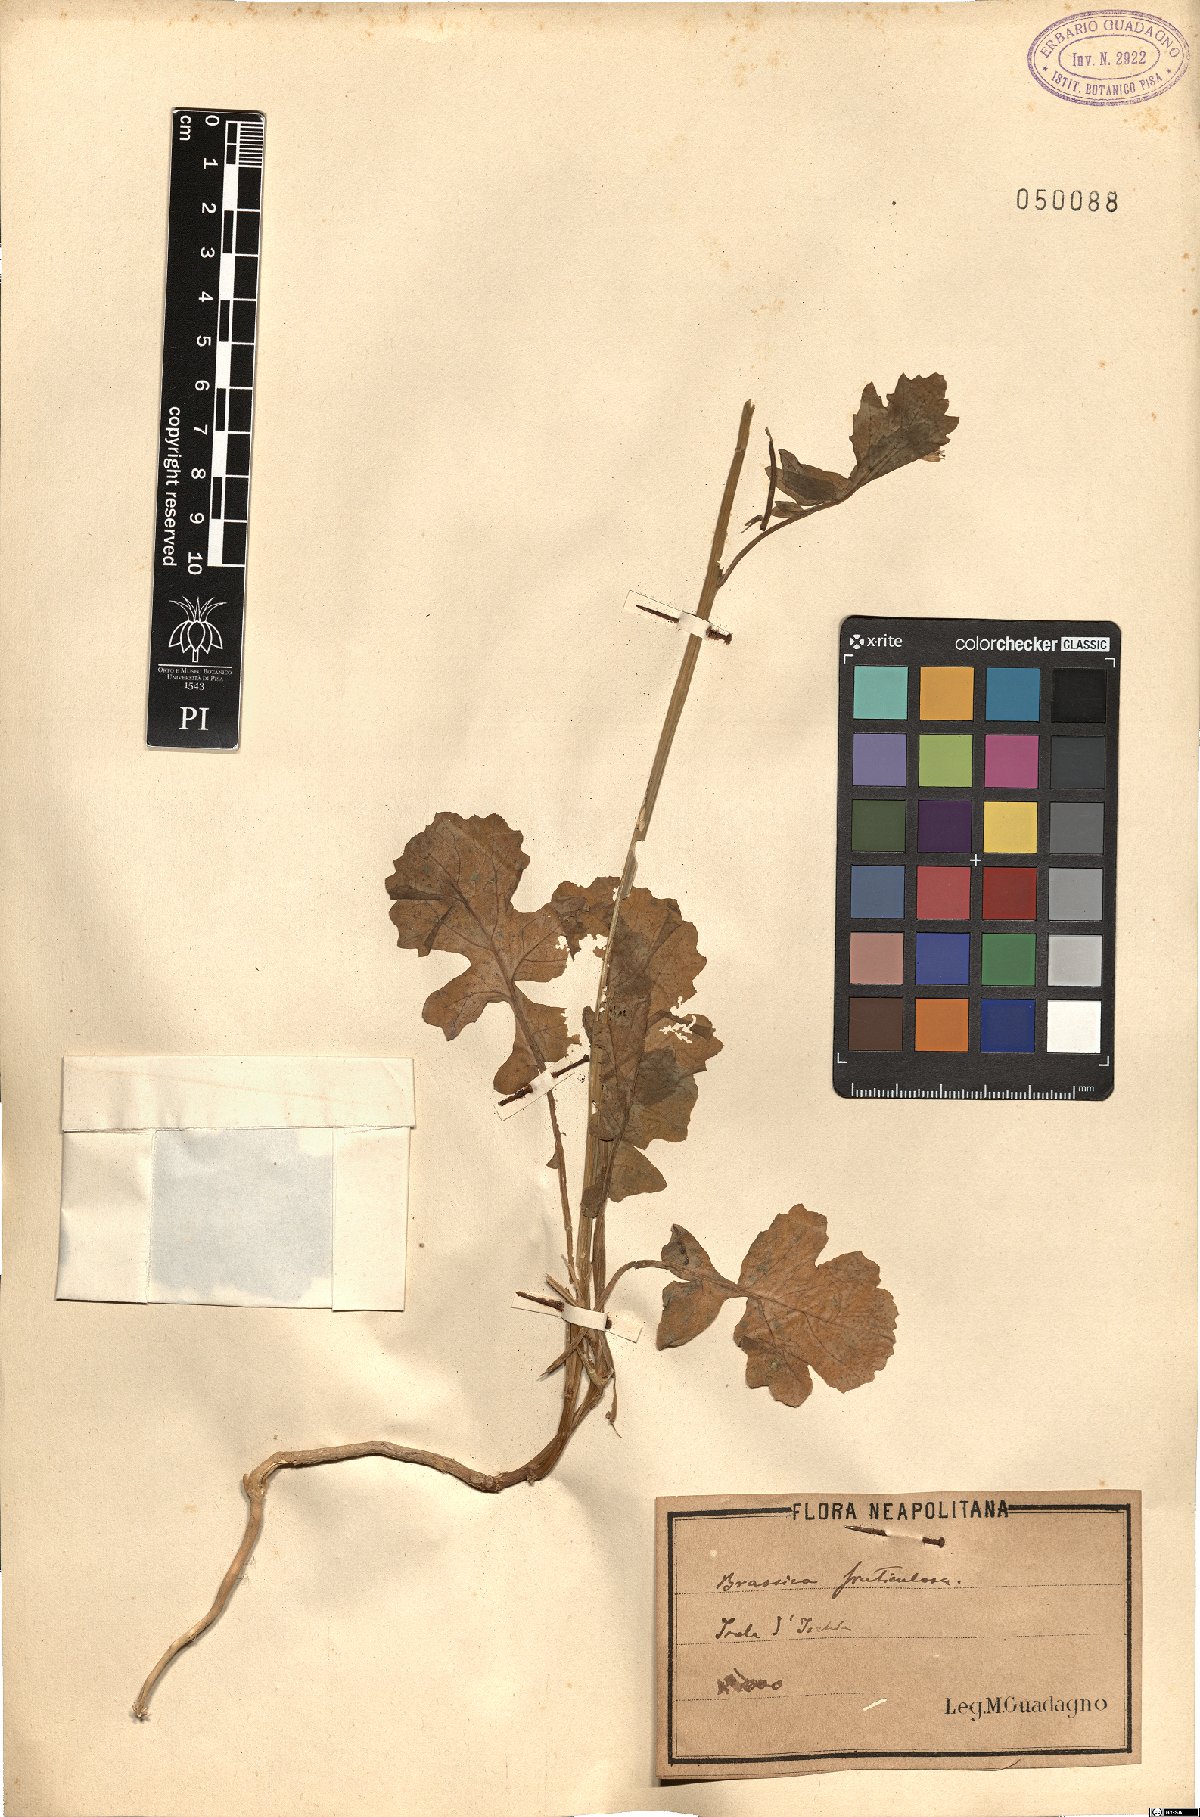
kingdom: Plantae
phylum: Tracheophyta
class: Magnoliopsida
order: Brassicales
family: Brassicaceae
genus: Brassica
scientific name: Brassica fruticulosa
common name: Twiggy turnip
